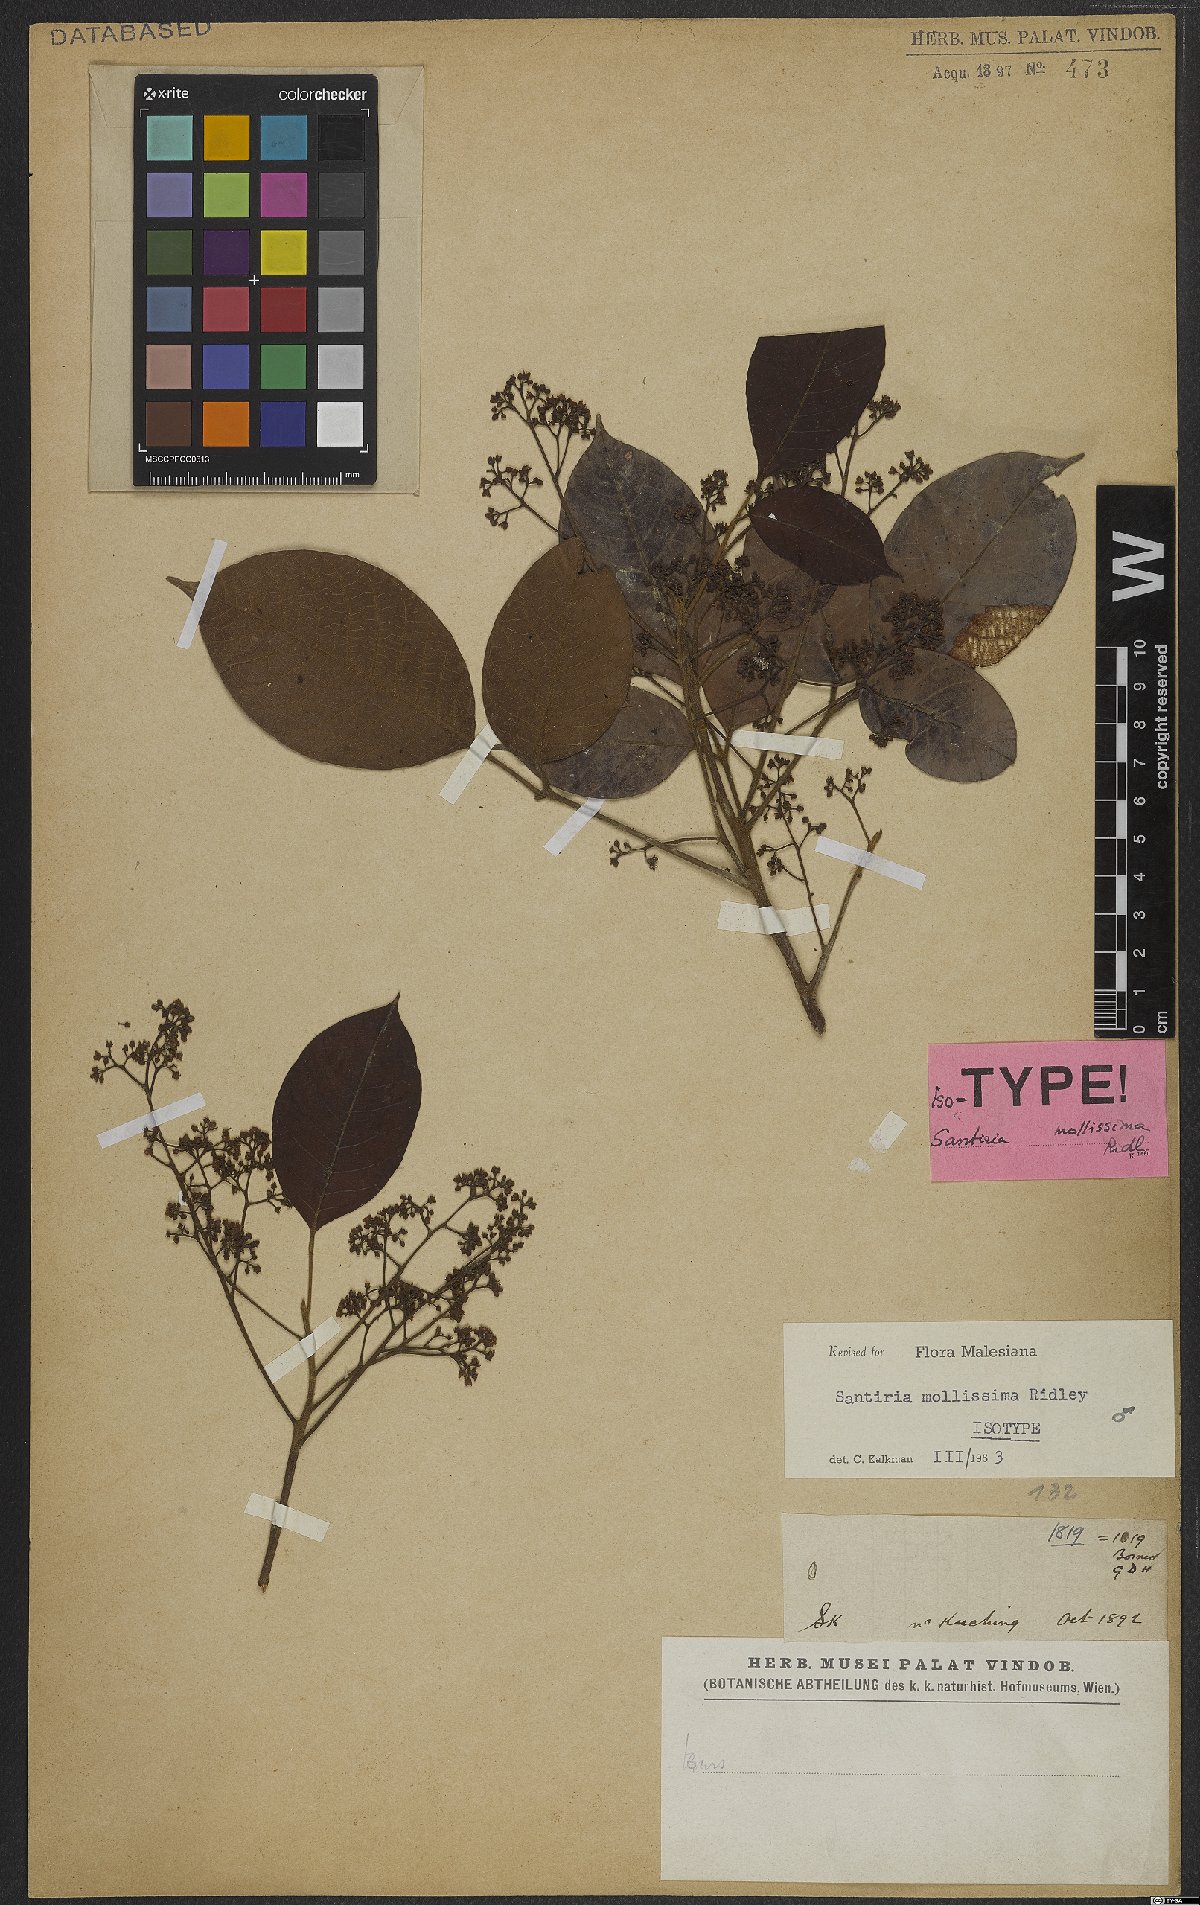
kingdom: Plantae
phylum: Tracheophyta
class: Magnoliopsida
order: Sapindales
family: Burseraceae
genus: Santiria
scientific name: Santiria tomentosa
